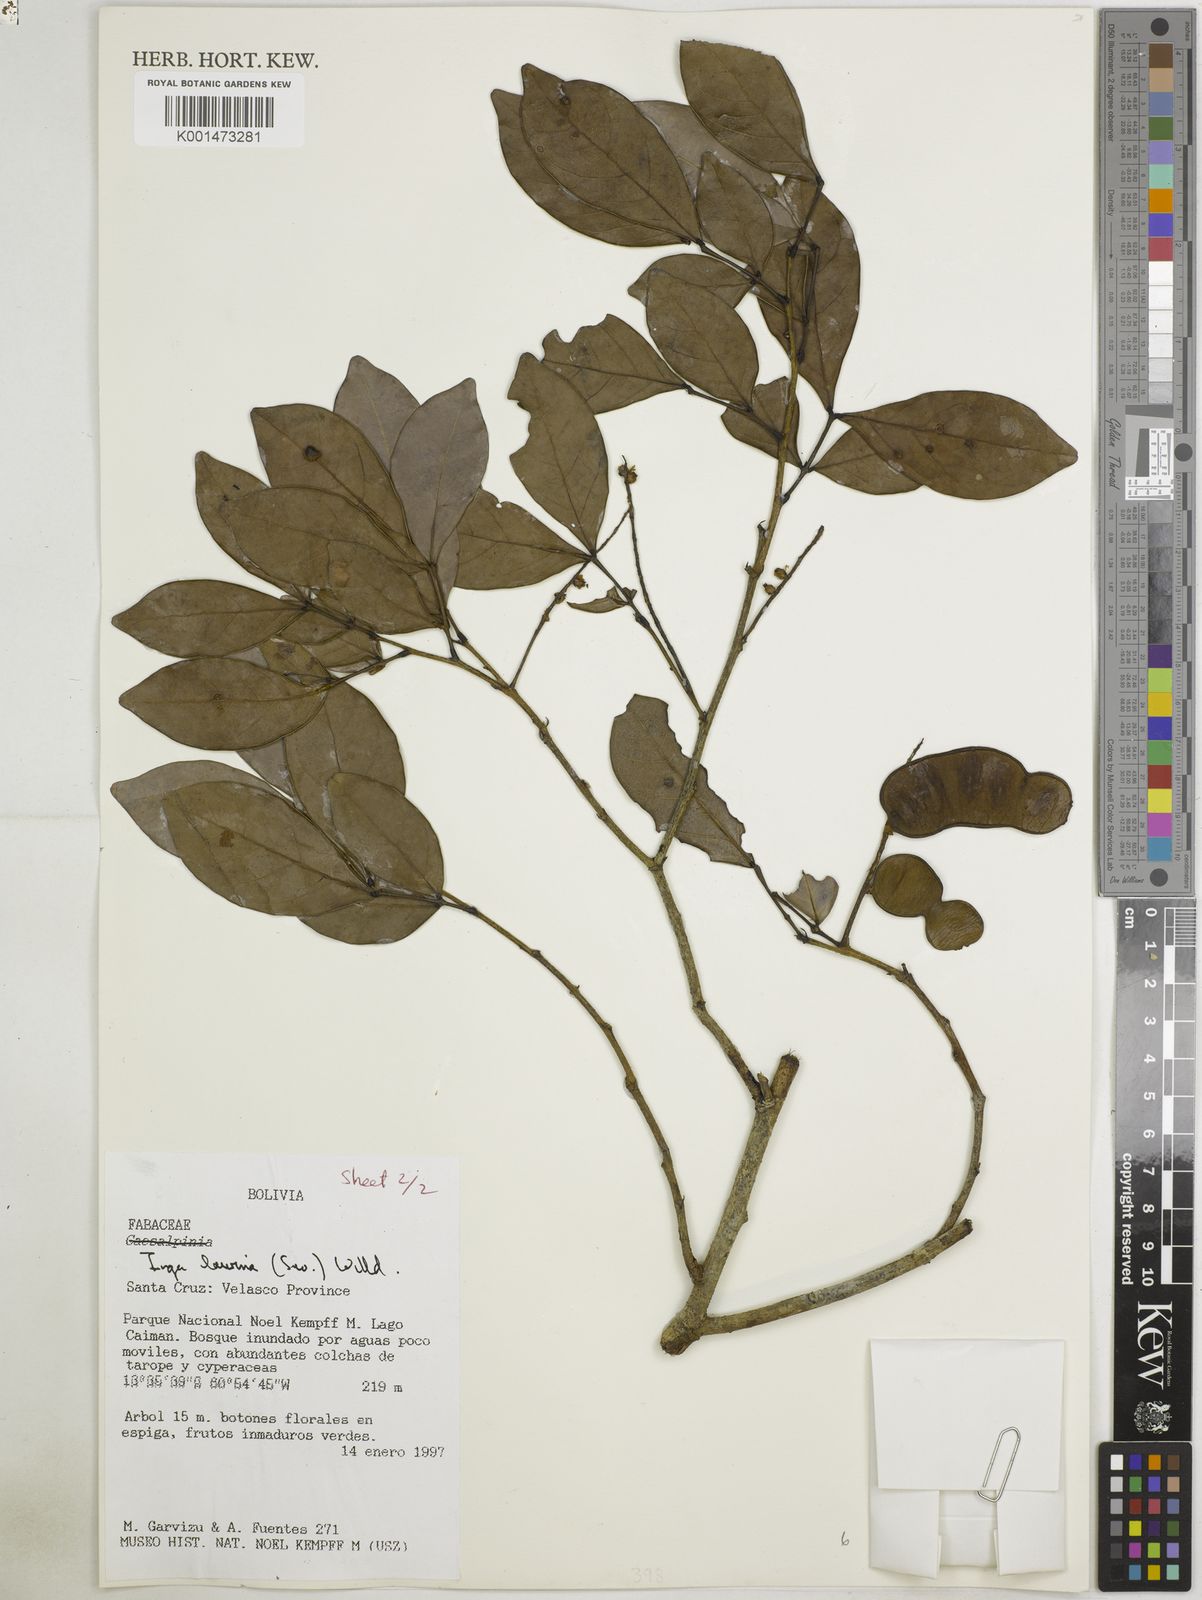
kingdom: Plantae
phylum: Tracheophyta
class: Magnoliopsida
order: Fabales
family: Fabaceae
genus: Inga
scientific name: Inga laurina
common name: Red wood
